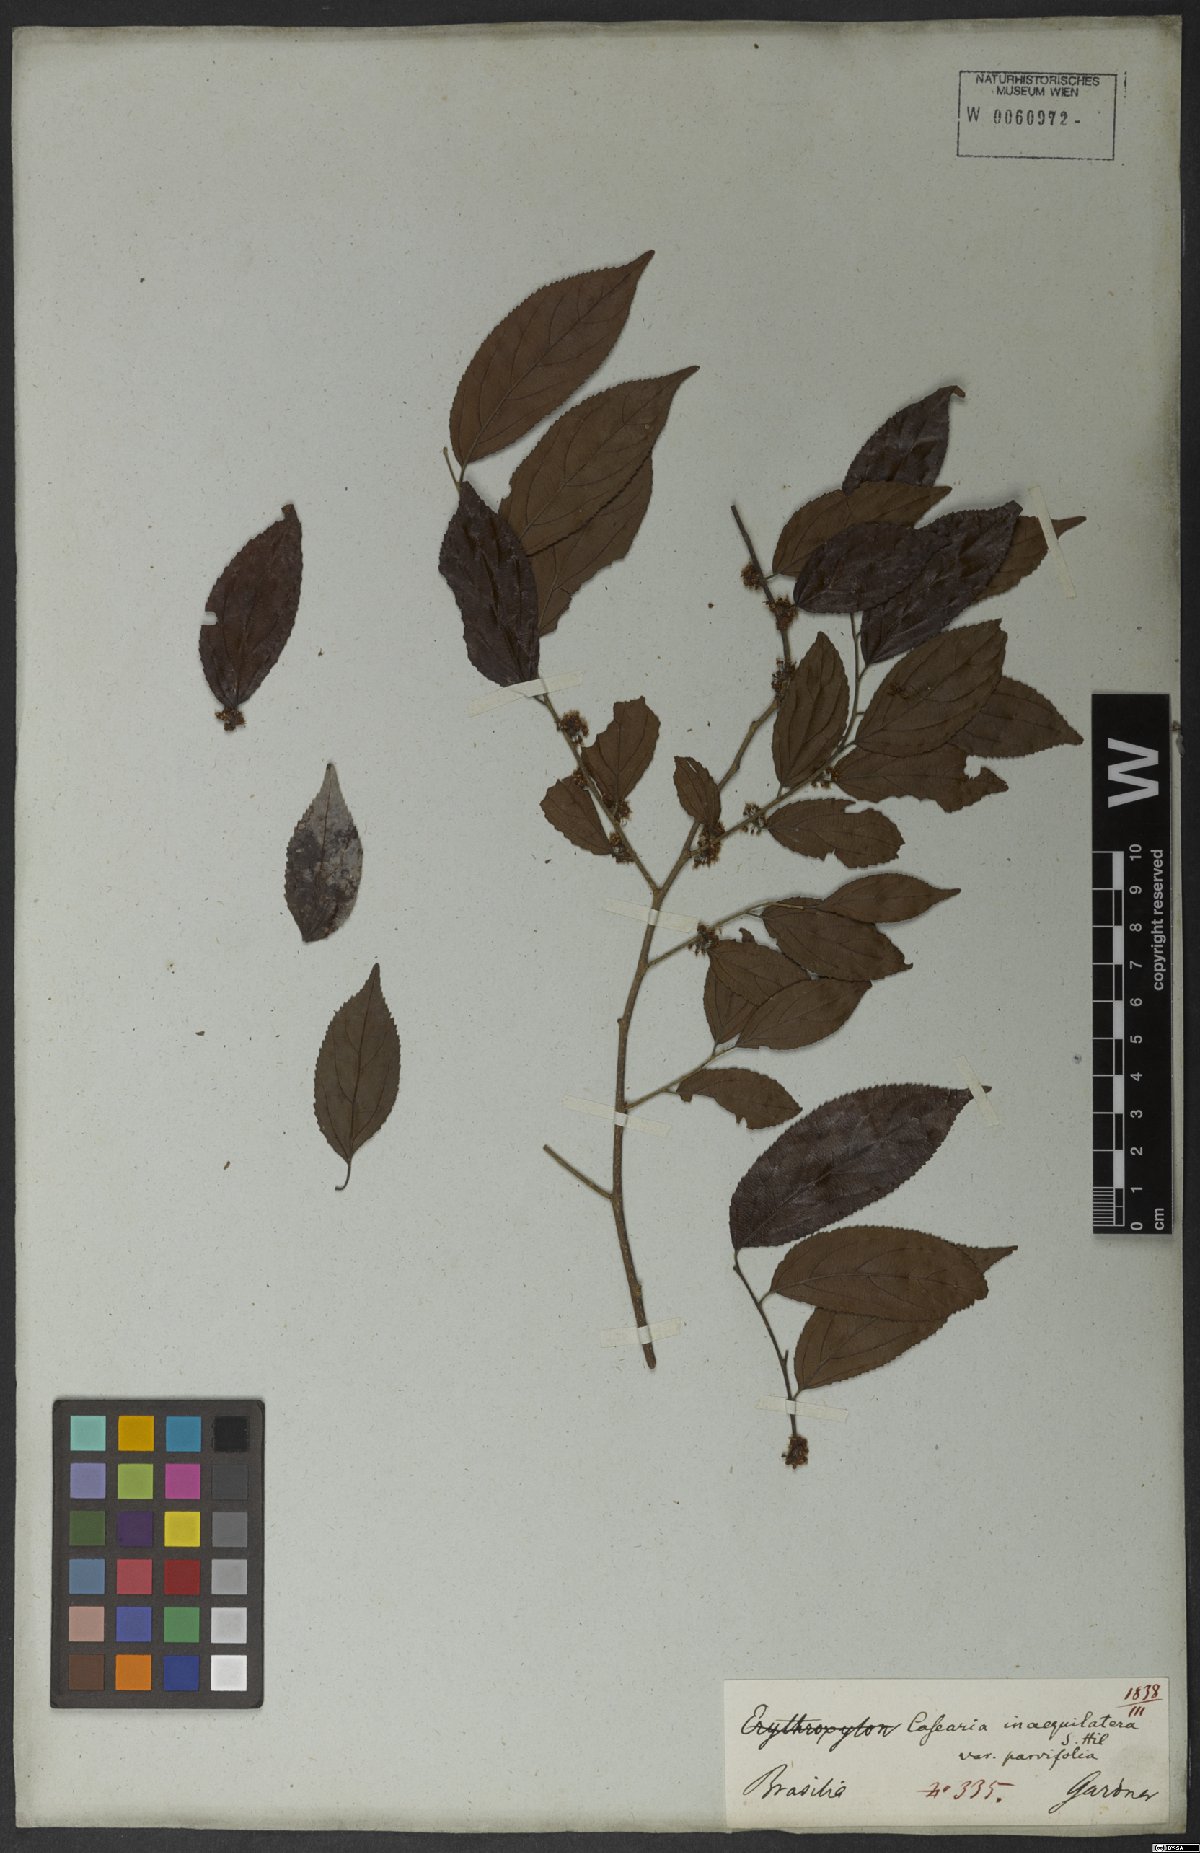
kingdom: Plantae
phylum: Tracheophyta
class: Magnoliopsida
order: Malpighiales
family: Salicaceae
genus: Casearia
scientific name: Casearia obliqua
